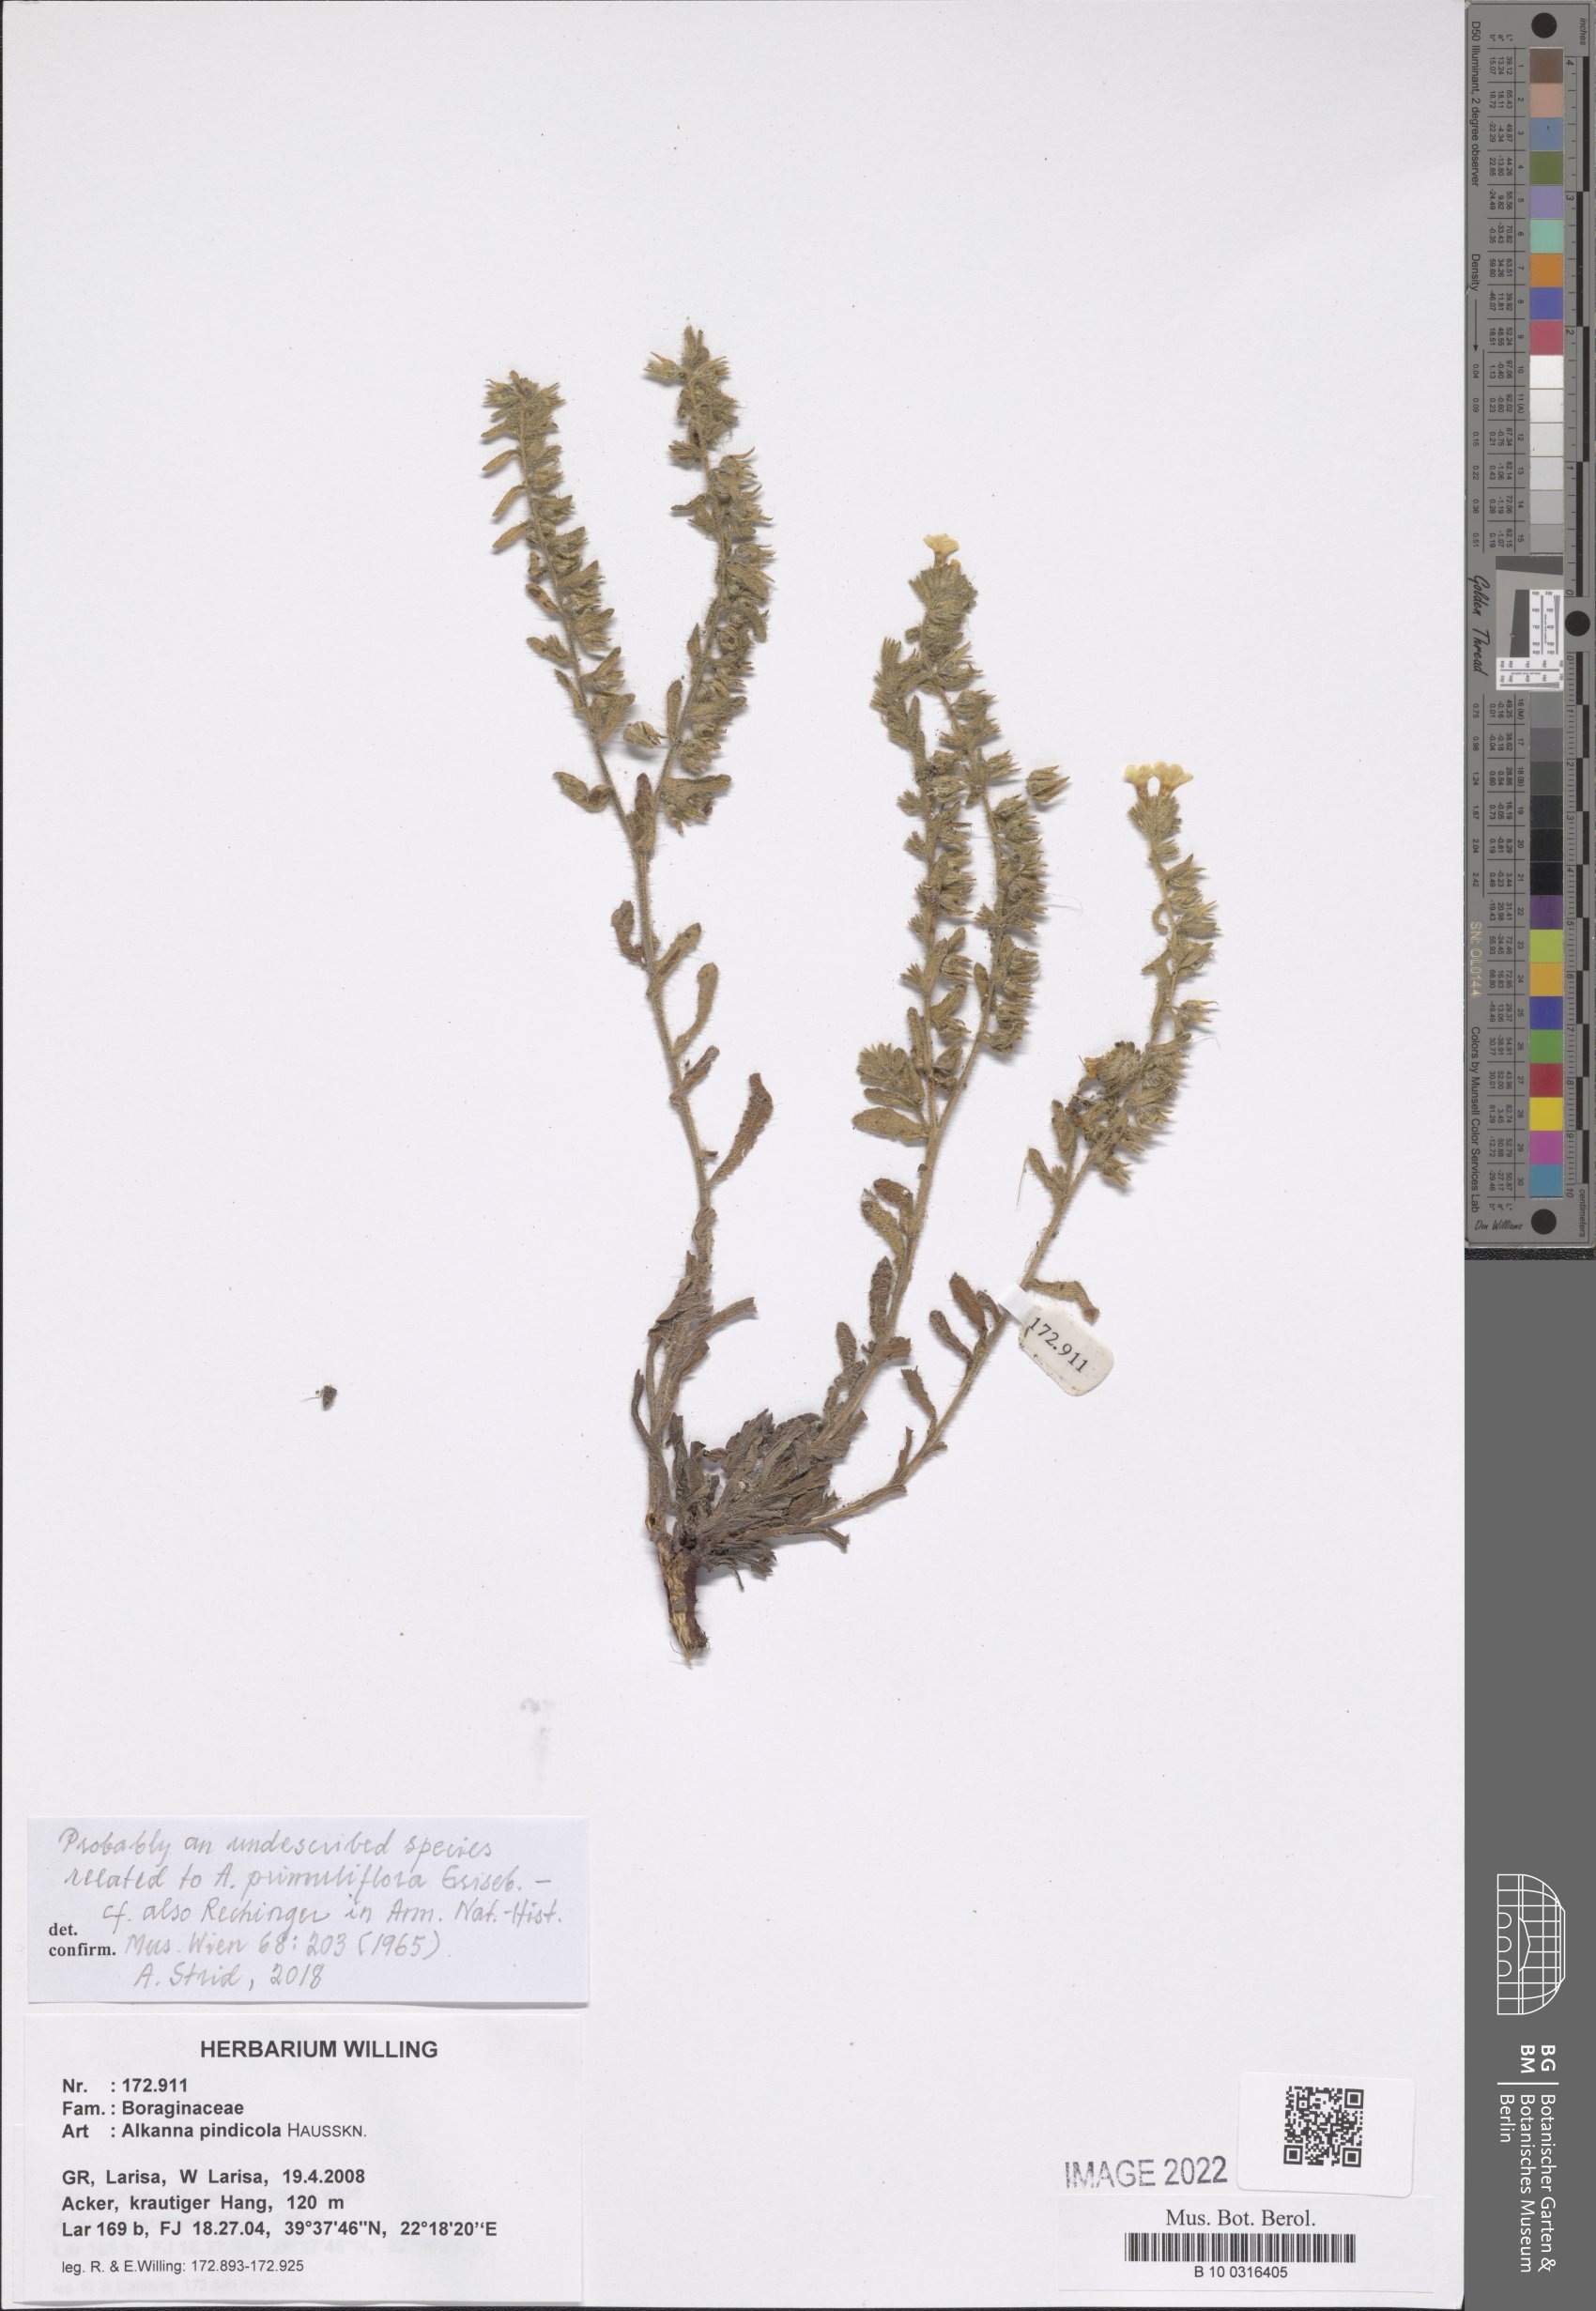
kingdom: Plantae
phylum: Tracheophyta
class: Magnoliopsida
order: Boraginales
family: Boraginaceae
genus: Alkanna
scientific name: Alkanna pindicola
